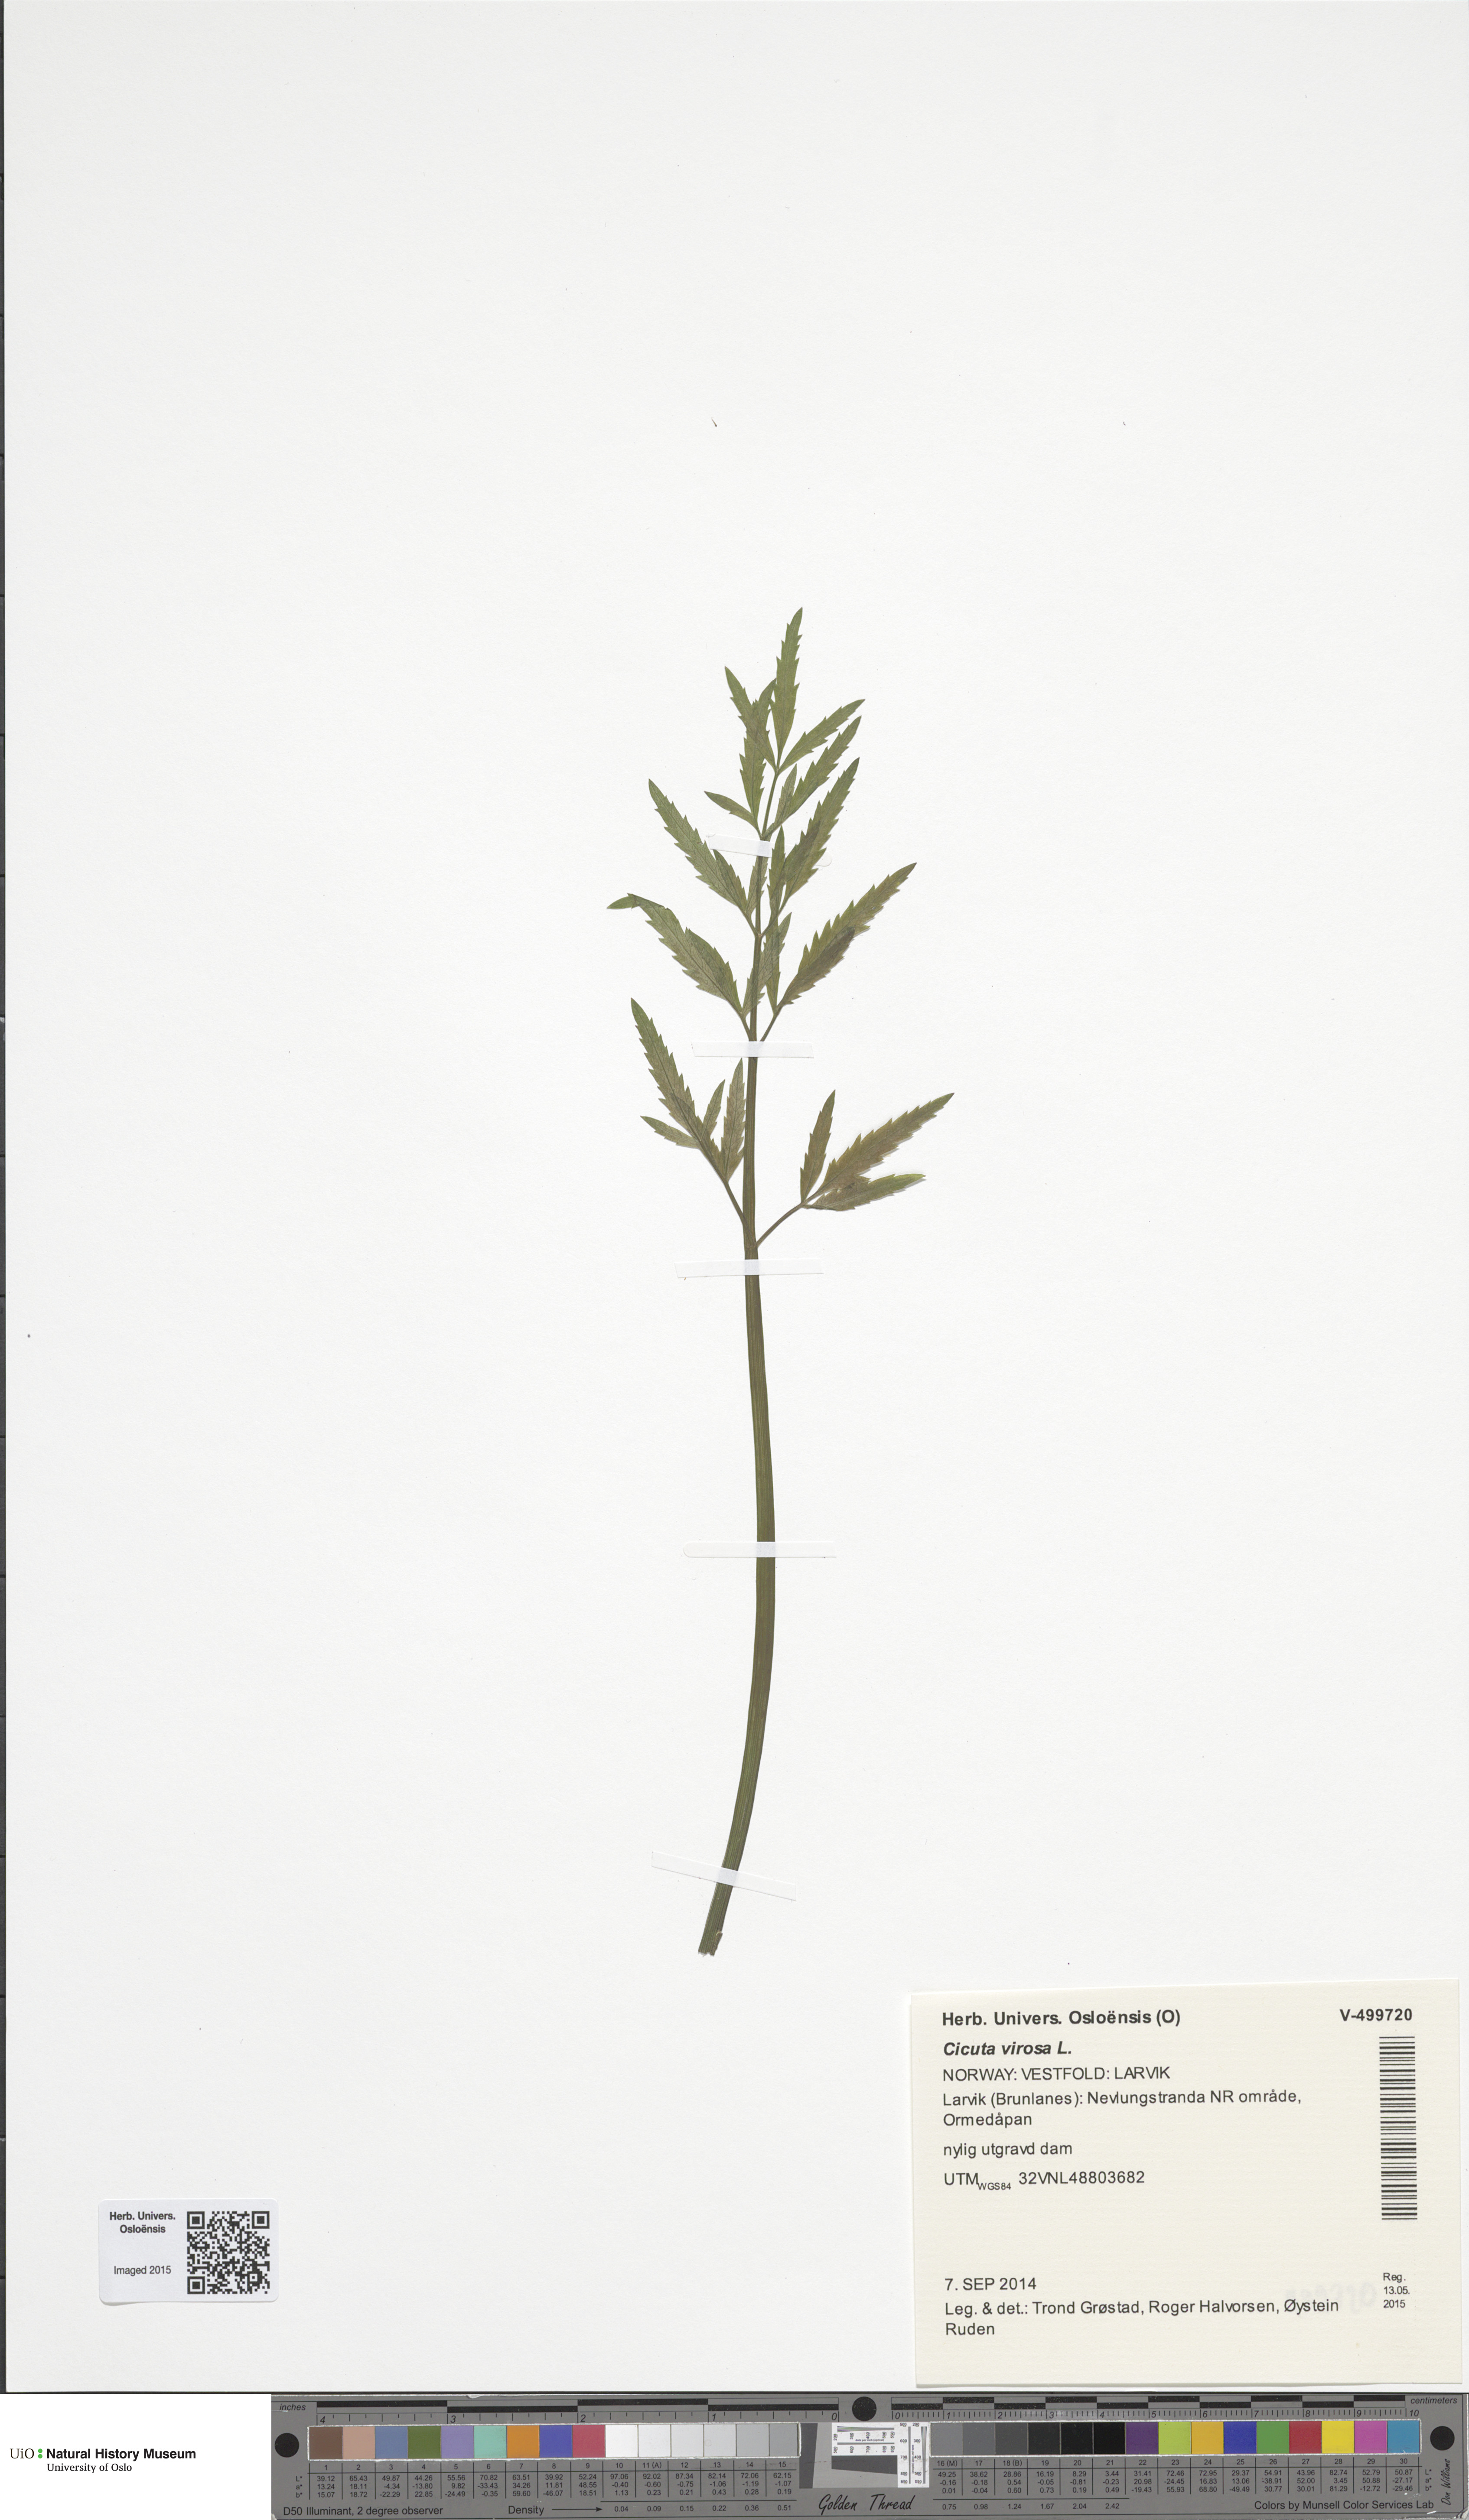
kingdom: Plantae
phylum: Tracheophyta
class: Magnoliopsida
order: Apiales
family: Apiaceae
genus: Cicuta
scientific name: Cicuta virosa
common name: Cowbane
